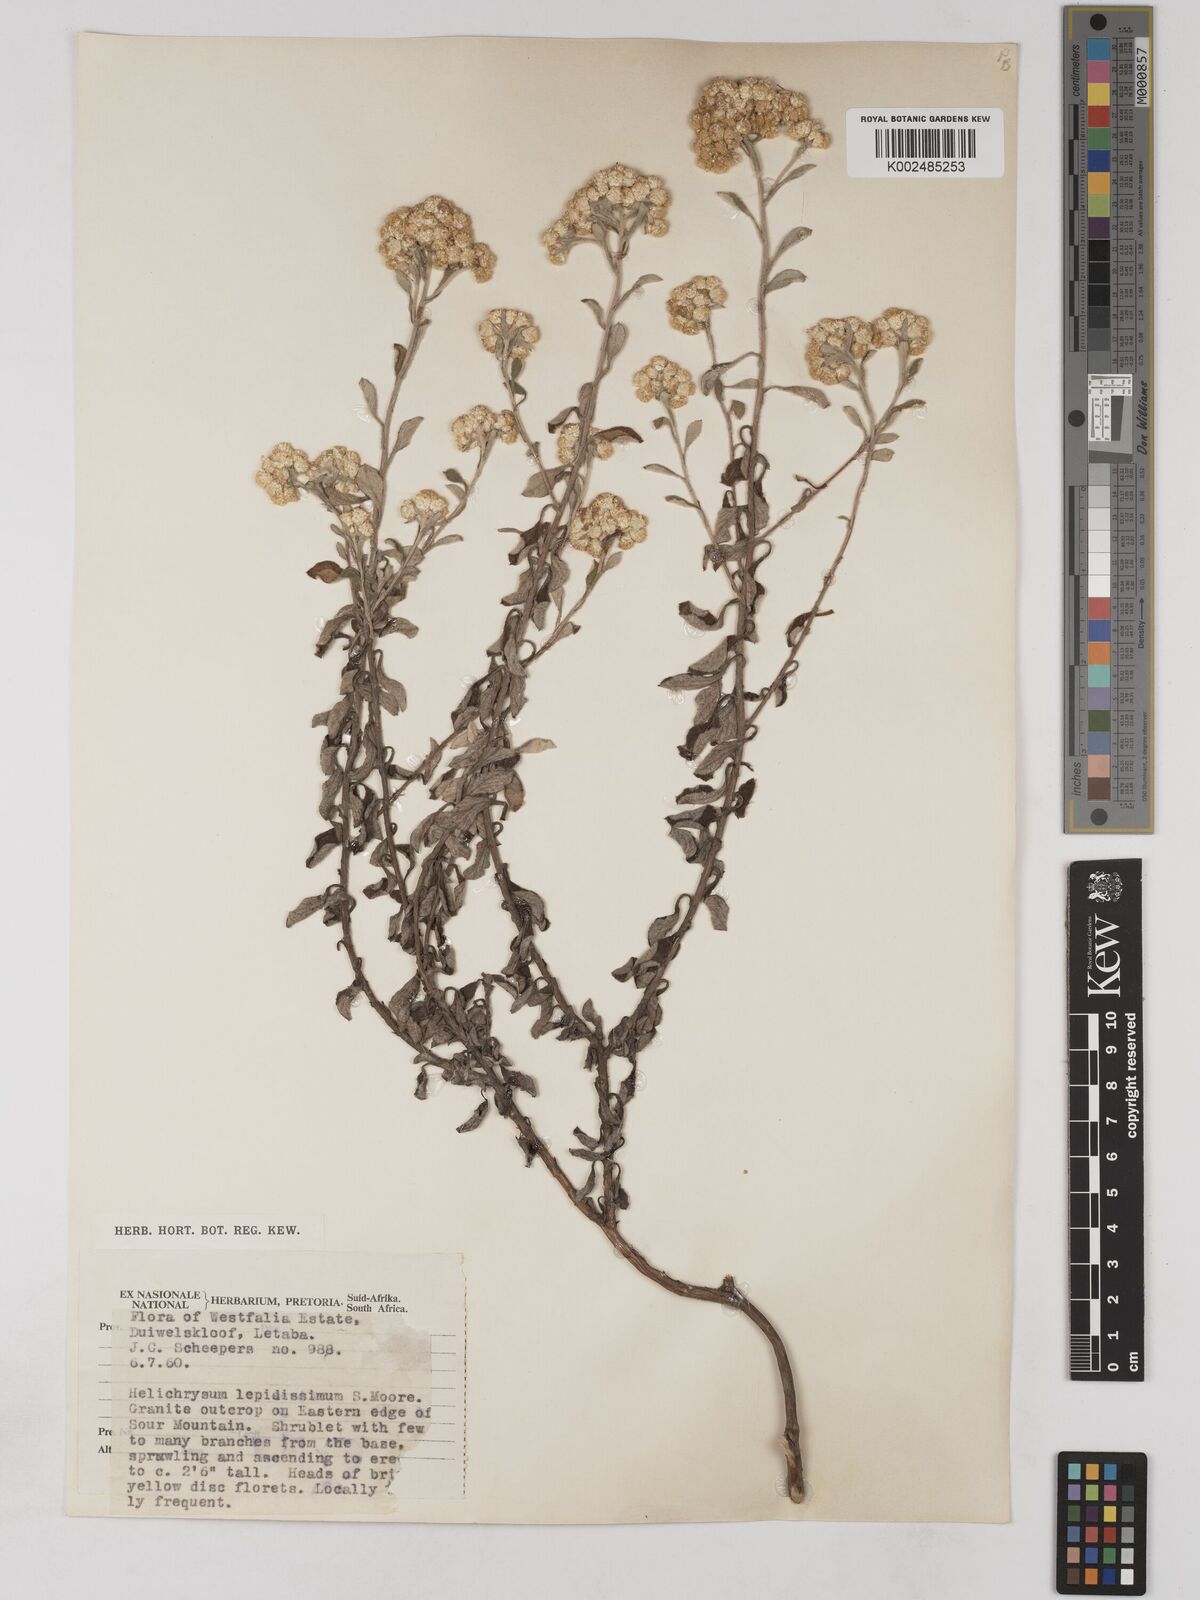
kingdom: Plantae
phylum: Tracheophyta
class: Magnoliopsida
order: Asterales
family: Asteraceae
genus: Helichrysum
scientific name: Helichrysum lepidissimum
